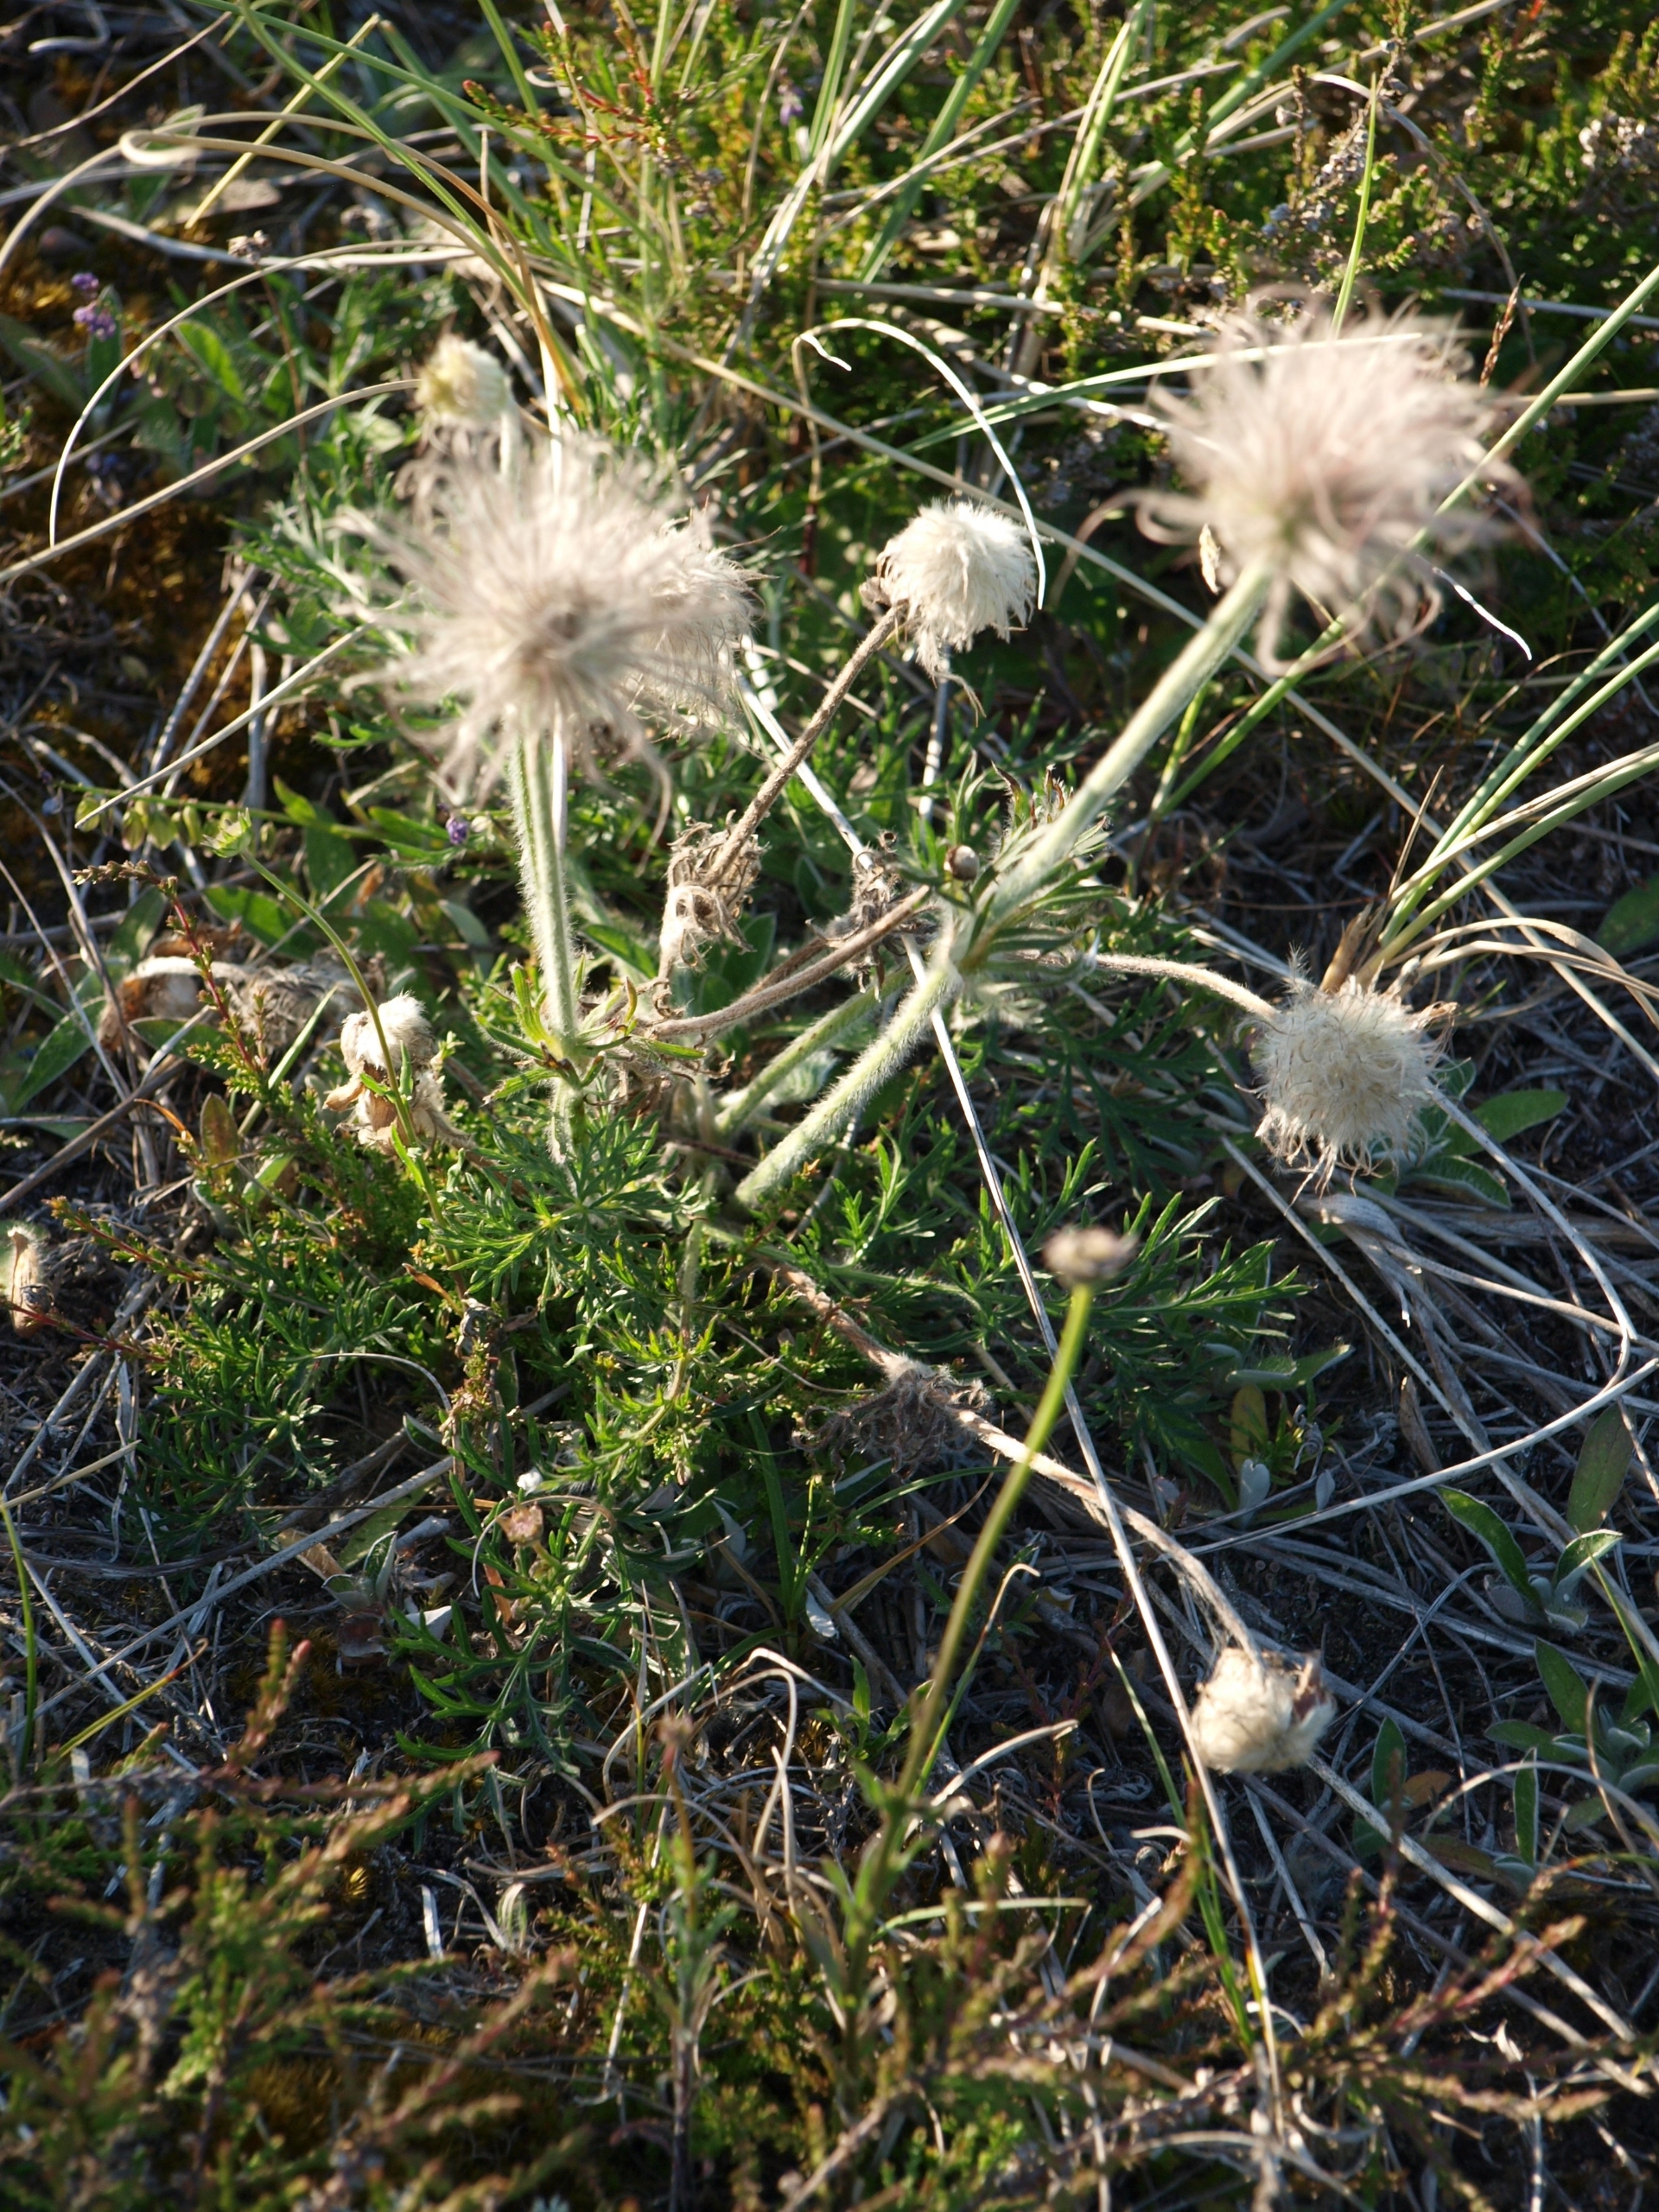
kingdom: Plantae
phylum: Tracheophyta
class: Magnoliopsida
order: Ranunculales
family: Ranunculaceae
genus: Pulsatilla
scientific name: Pulsatilla pratensis
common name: Nikkende kobjælde
